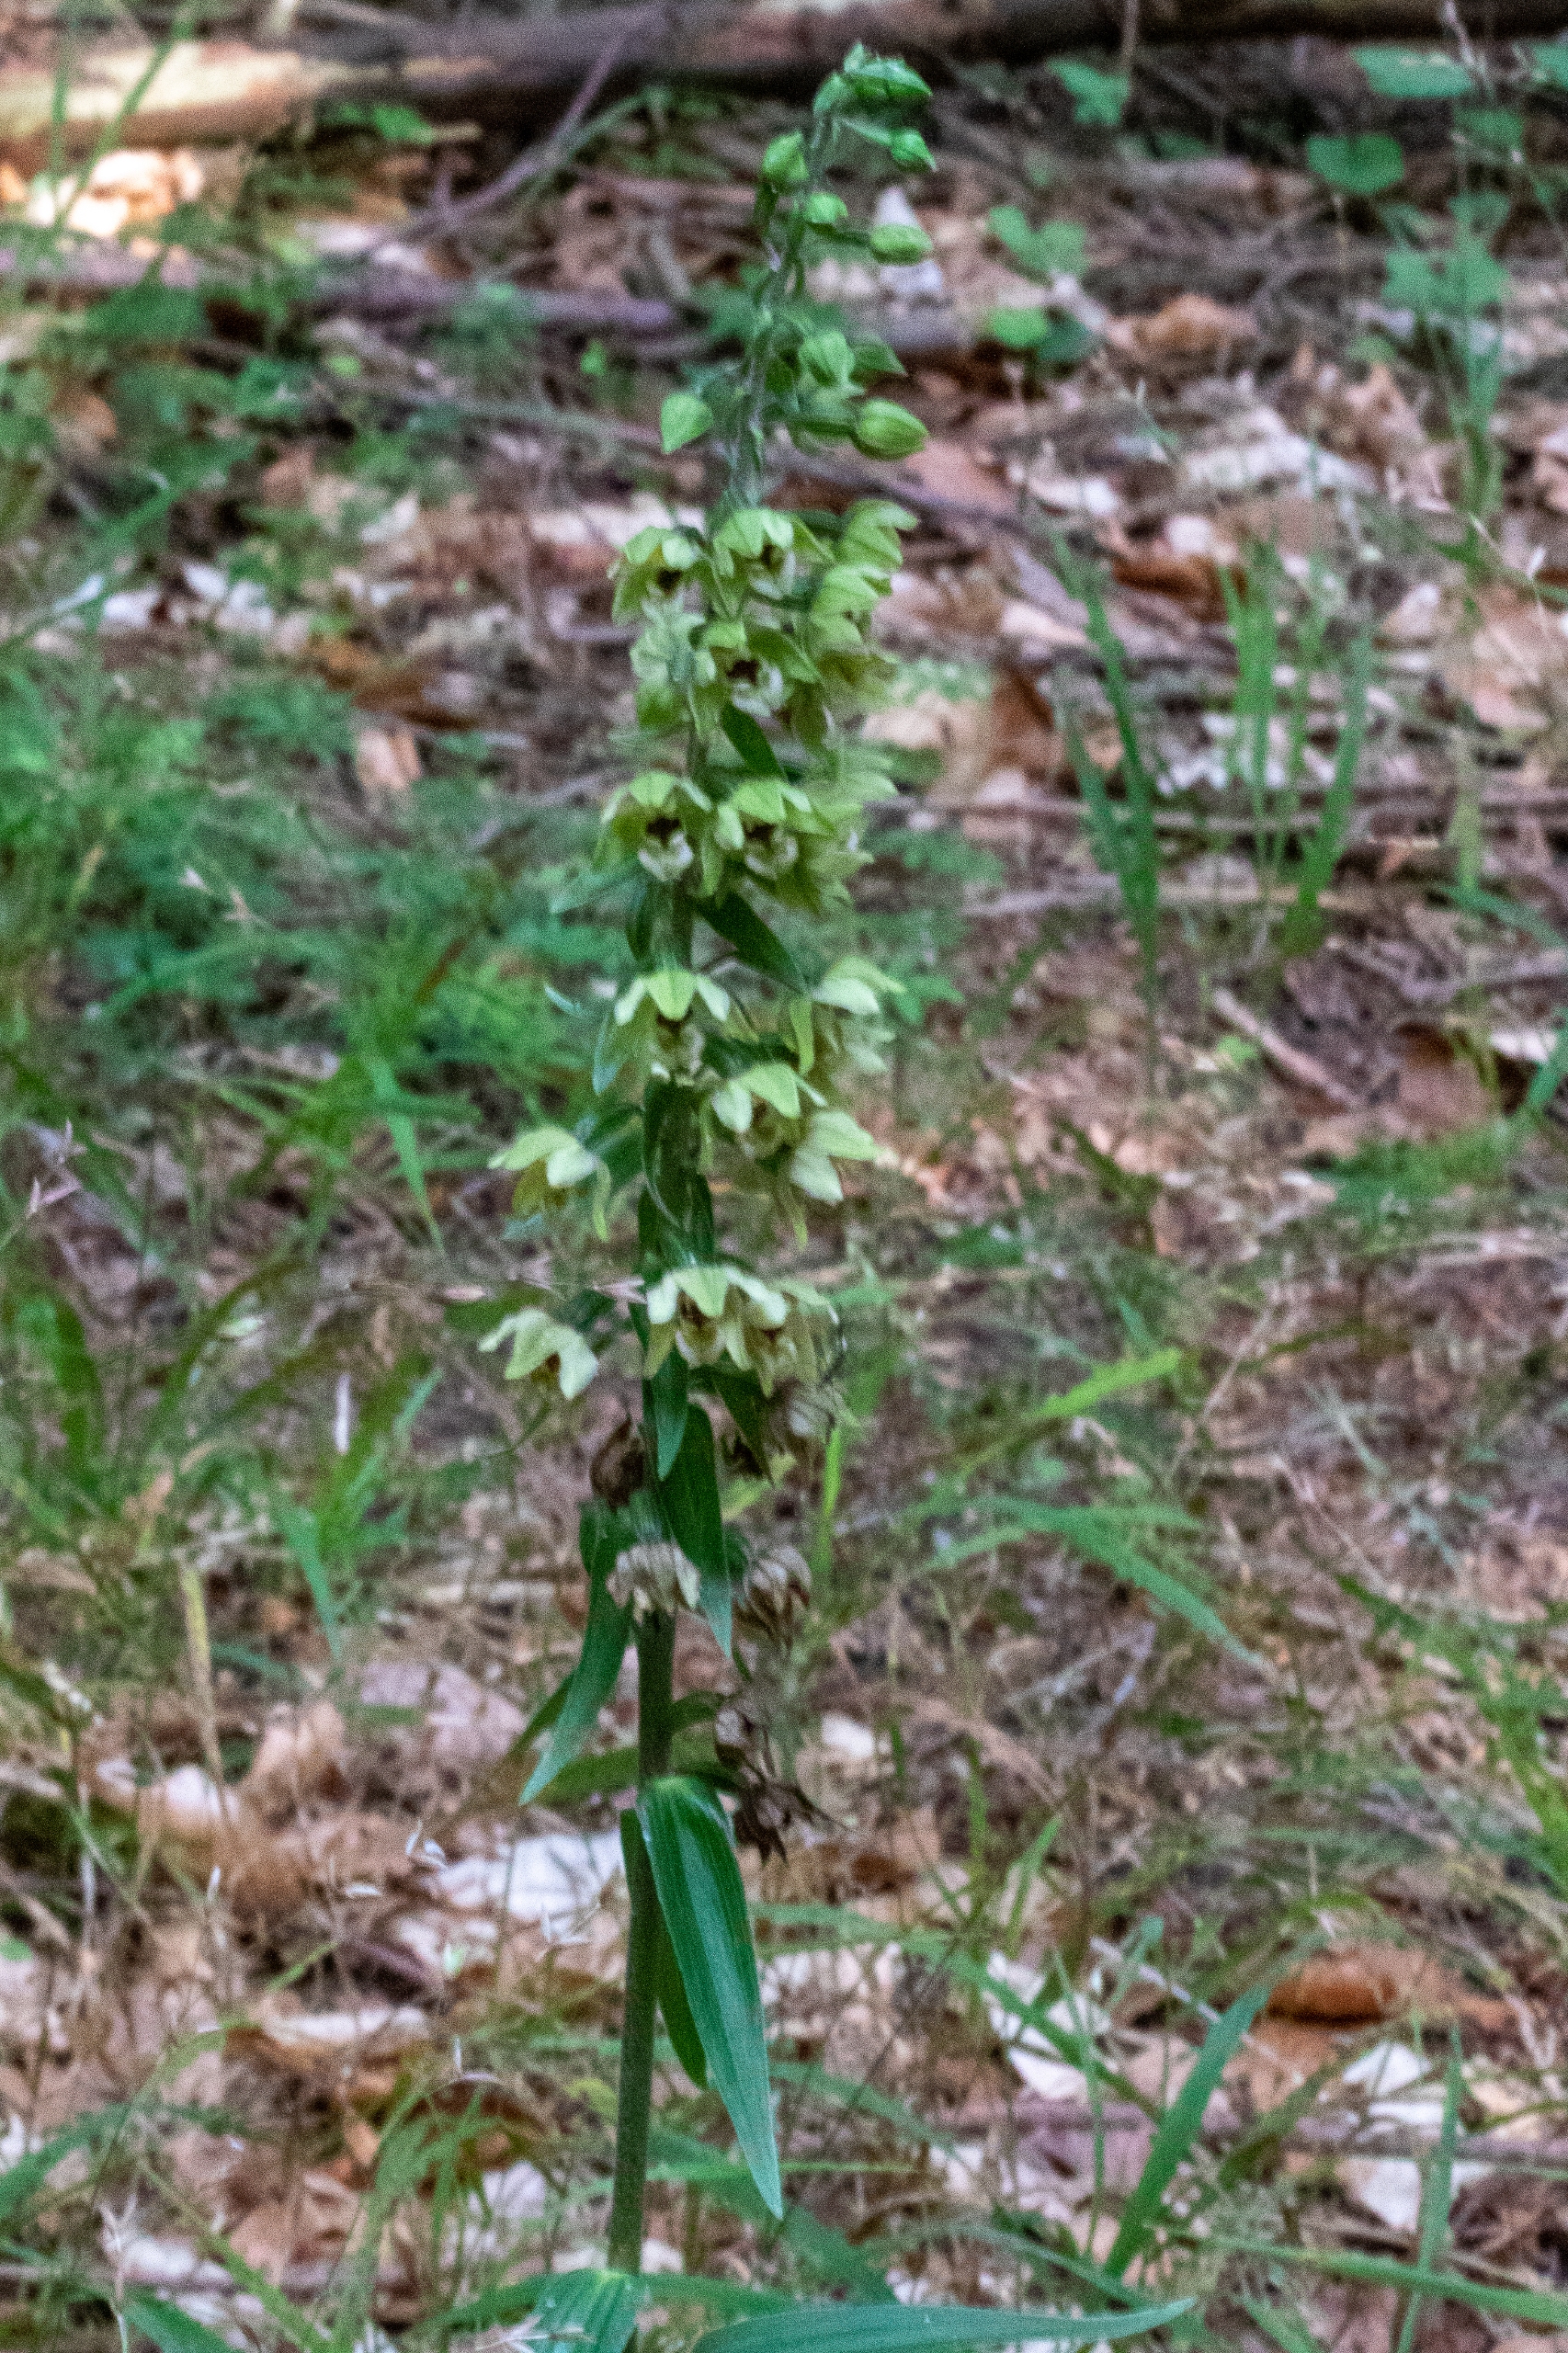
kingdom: Plantae
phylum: Tracheophyta
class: Liliopsida
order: Asparagales
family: Orchidaceae
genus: Epipactis
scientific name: Epipactis helleborine
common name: Skov-hullæbe
